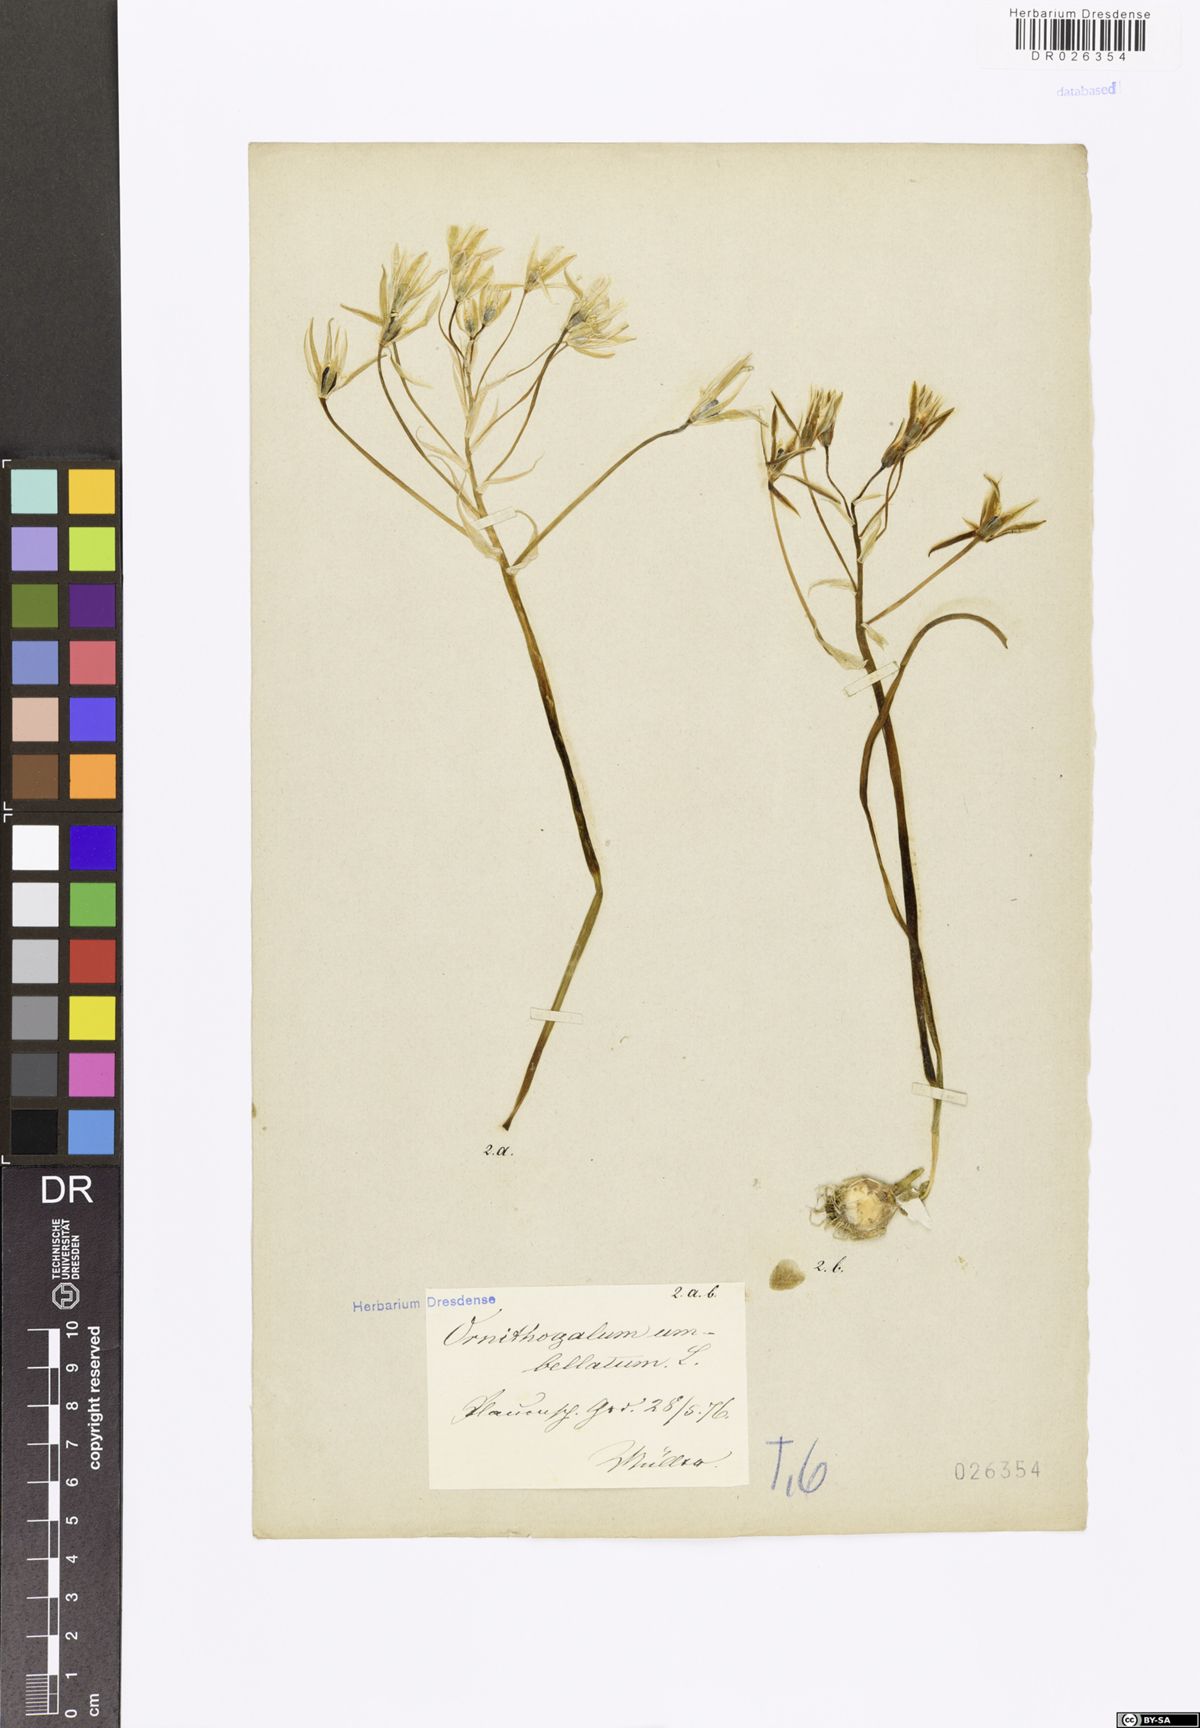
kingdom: Plantae
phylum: Tracheophyta
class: Liliopsida
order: Asparagales
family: Asparagaceae
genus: Ornithogalum
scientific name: Ornithogalum umbellatum
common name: Garden star-of-bethlehem
